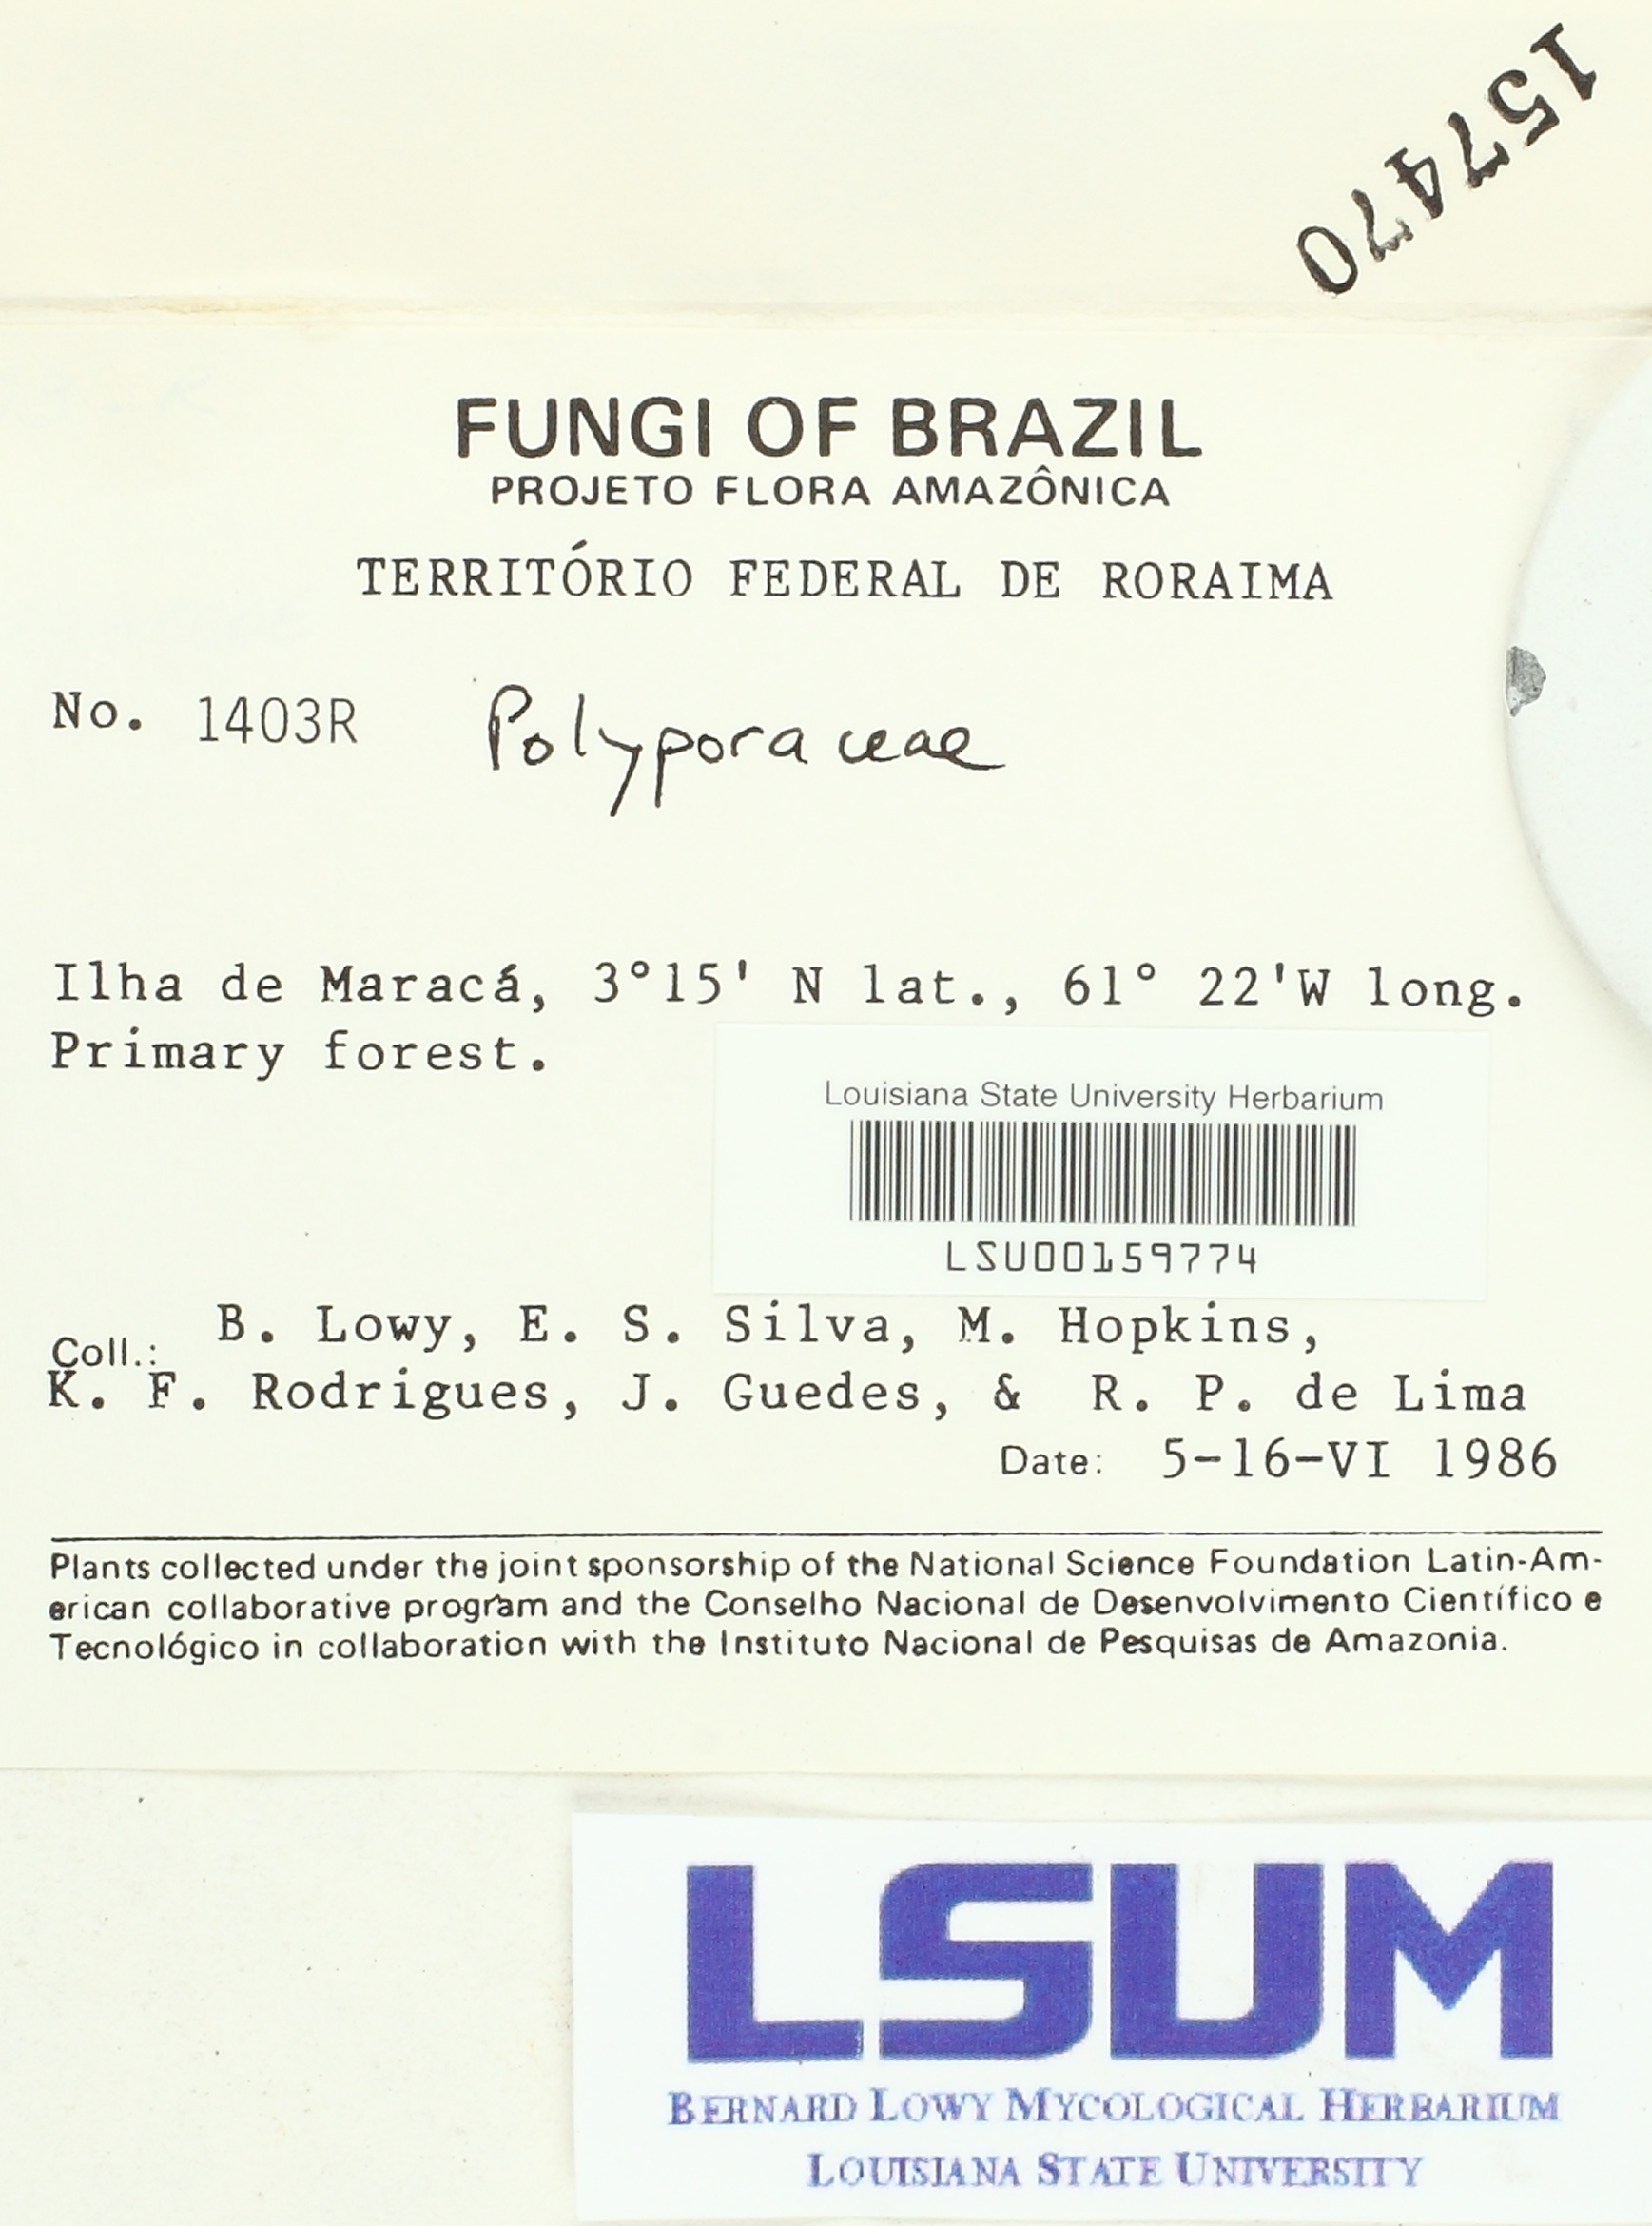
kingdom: Fungi
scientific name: Fungi
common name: Fungi
